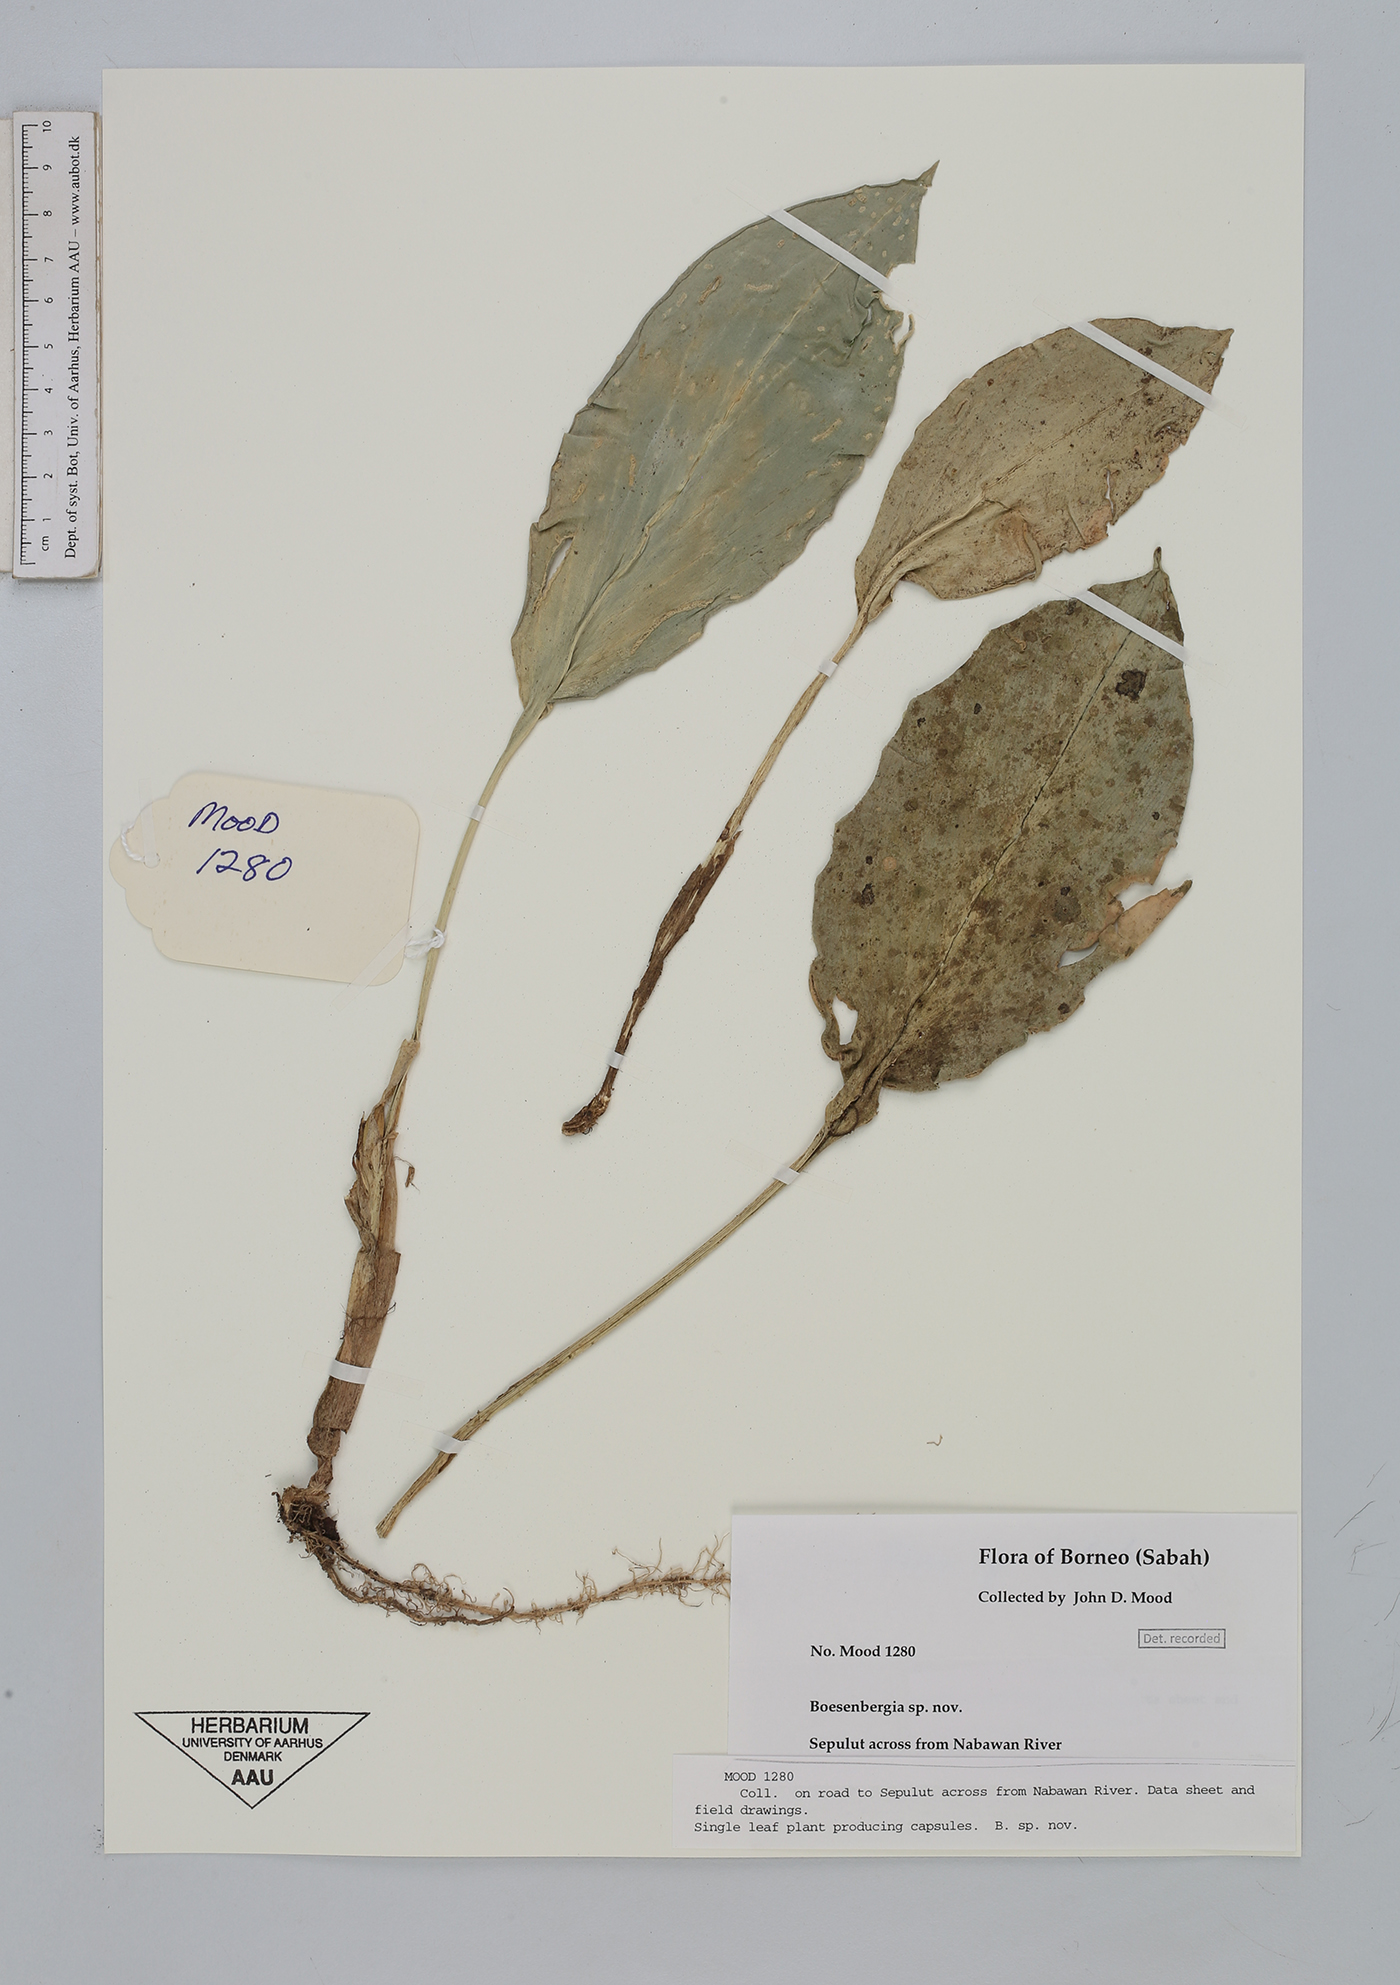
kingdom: Plantae
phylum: Tracheophyta
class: Liliopsida
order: Zingiberales
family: Zingiberaceae
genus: Boesenbergia
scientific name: Boesenbergia
